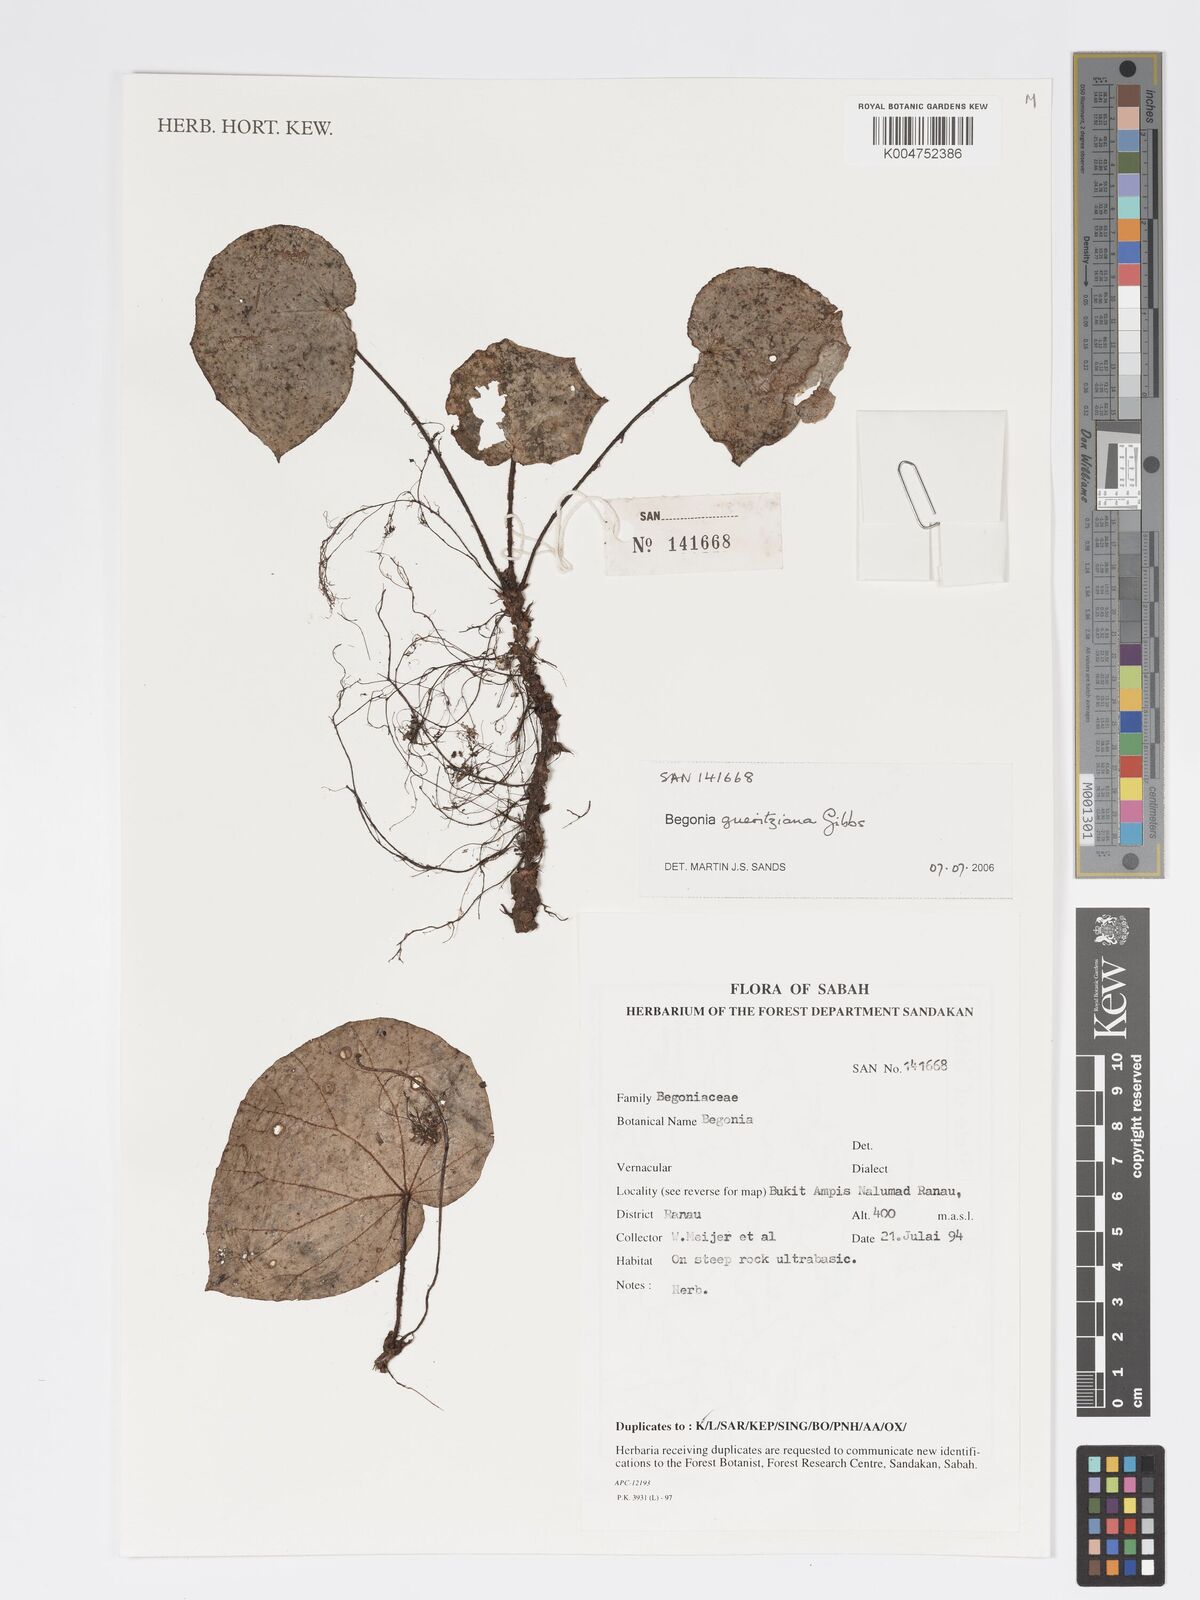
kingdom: Plantae
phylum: Tracheophyta
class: Magnoliopsida
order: Cucurbitales
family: Begoniaceae
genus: Begonia
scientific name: Begonia gueritziana
